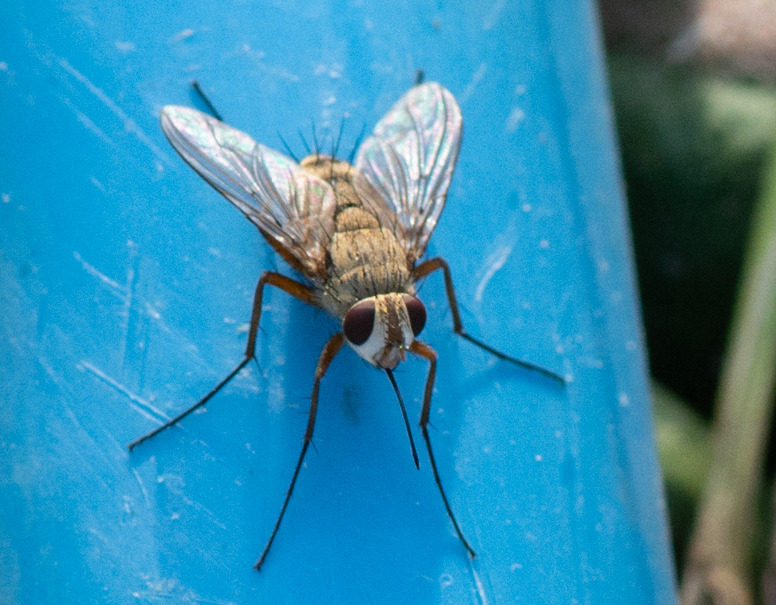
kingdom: Animalia
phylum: Arthropoda
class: Insecta
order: Diptera
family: Tachinidae
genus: Prosena
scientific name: Prosena siberita
